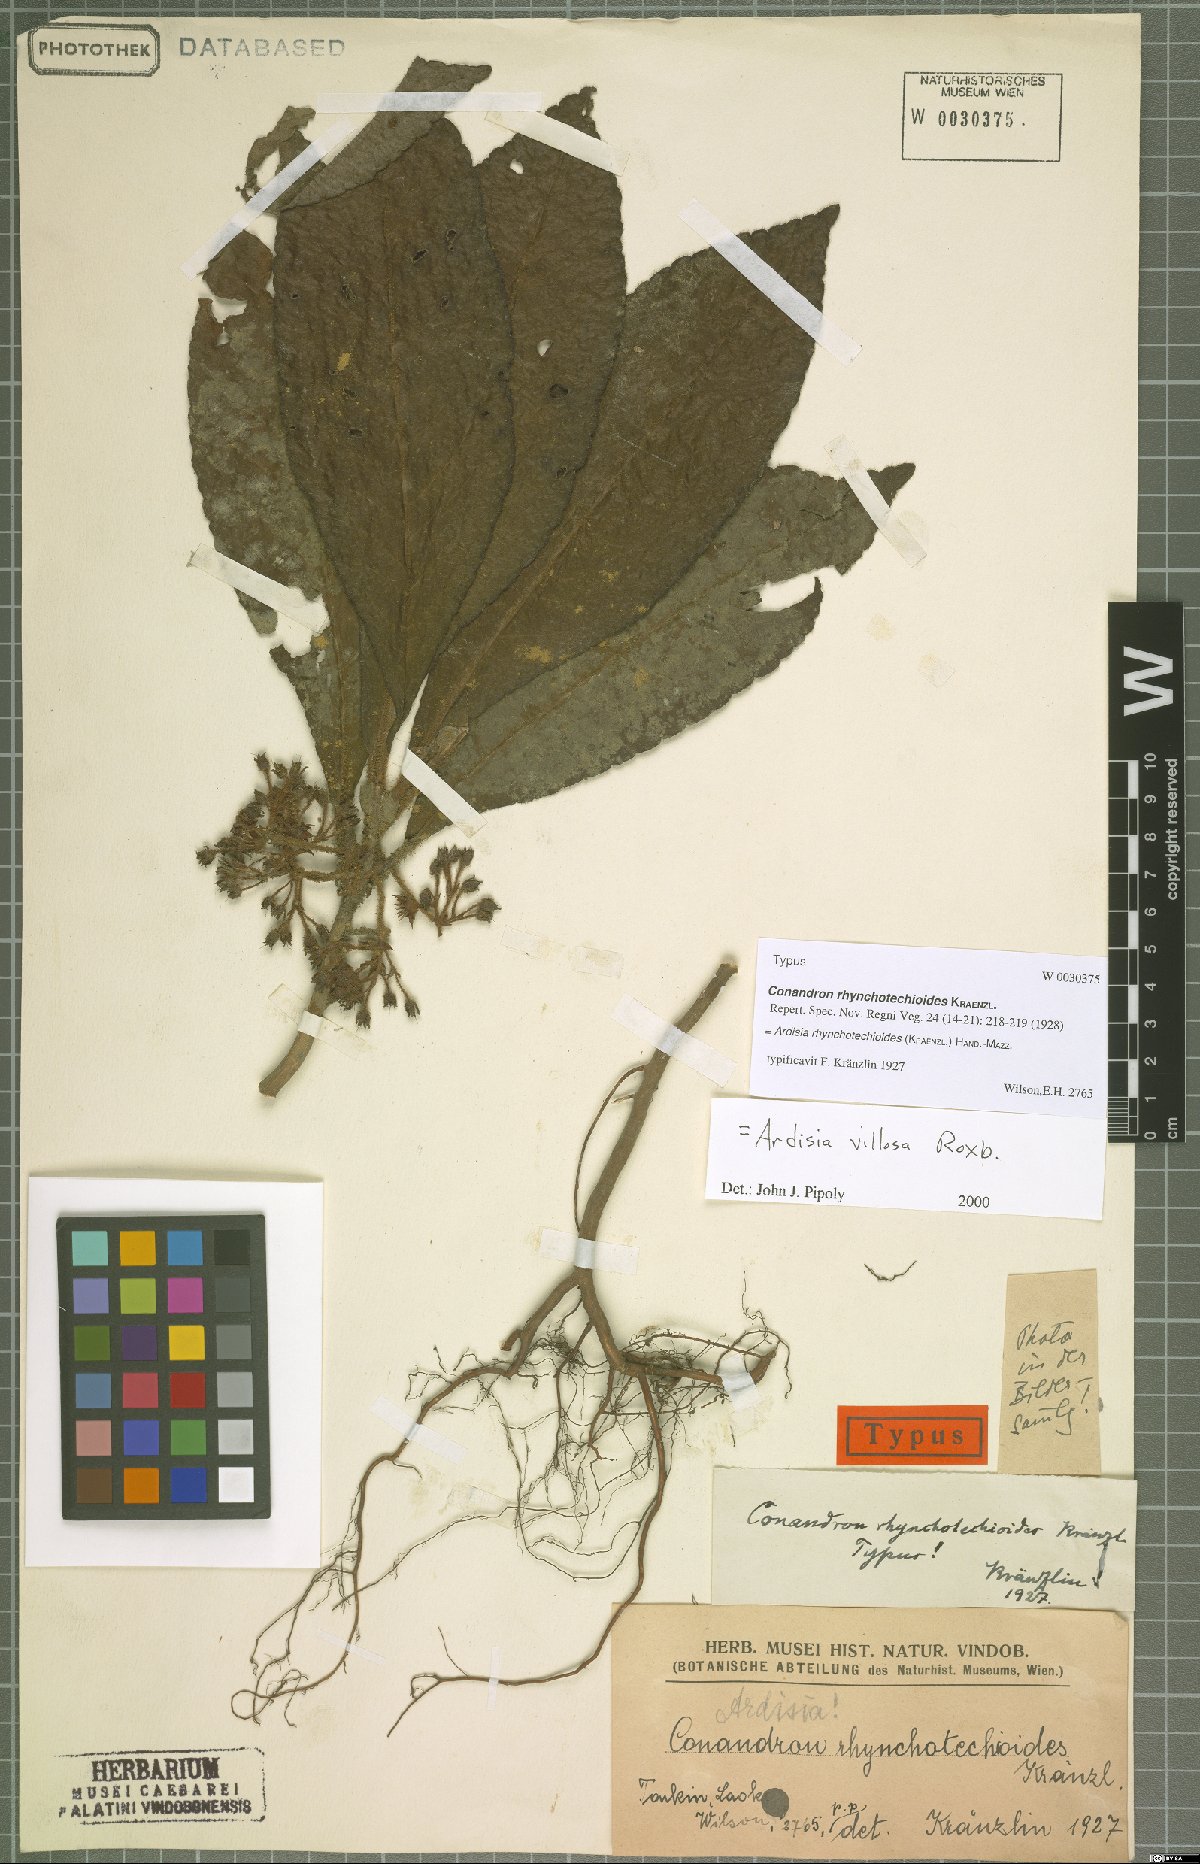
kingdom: Plantae
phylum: Tracheophyta
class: Magnoliopsida
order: Ericales
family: Primulaceae
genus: Ardisia
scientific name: Ardisia rhynchotechioides
